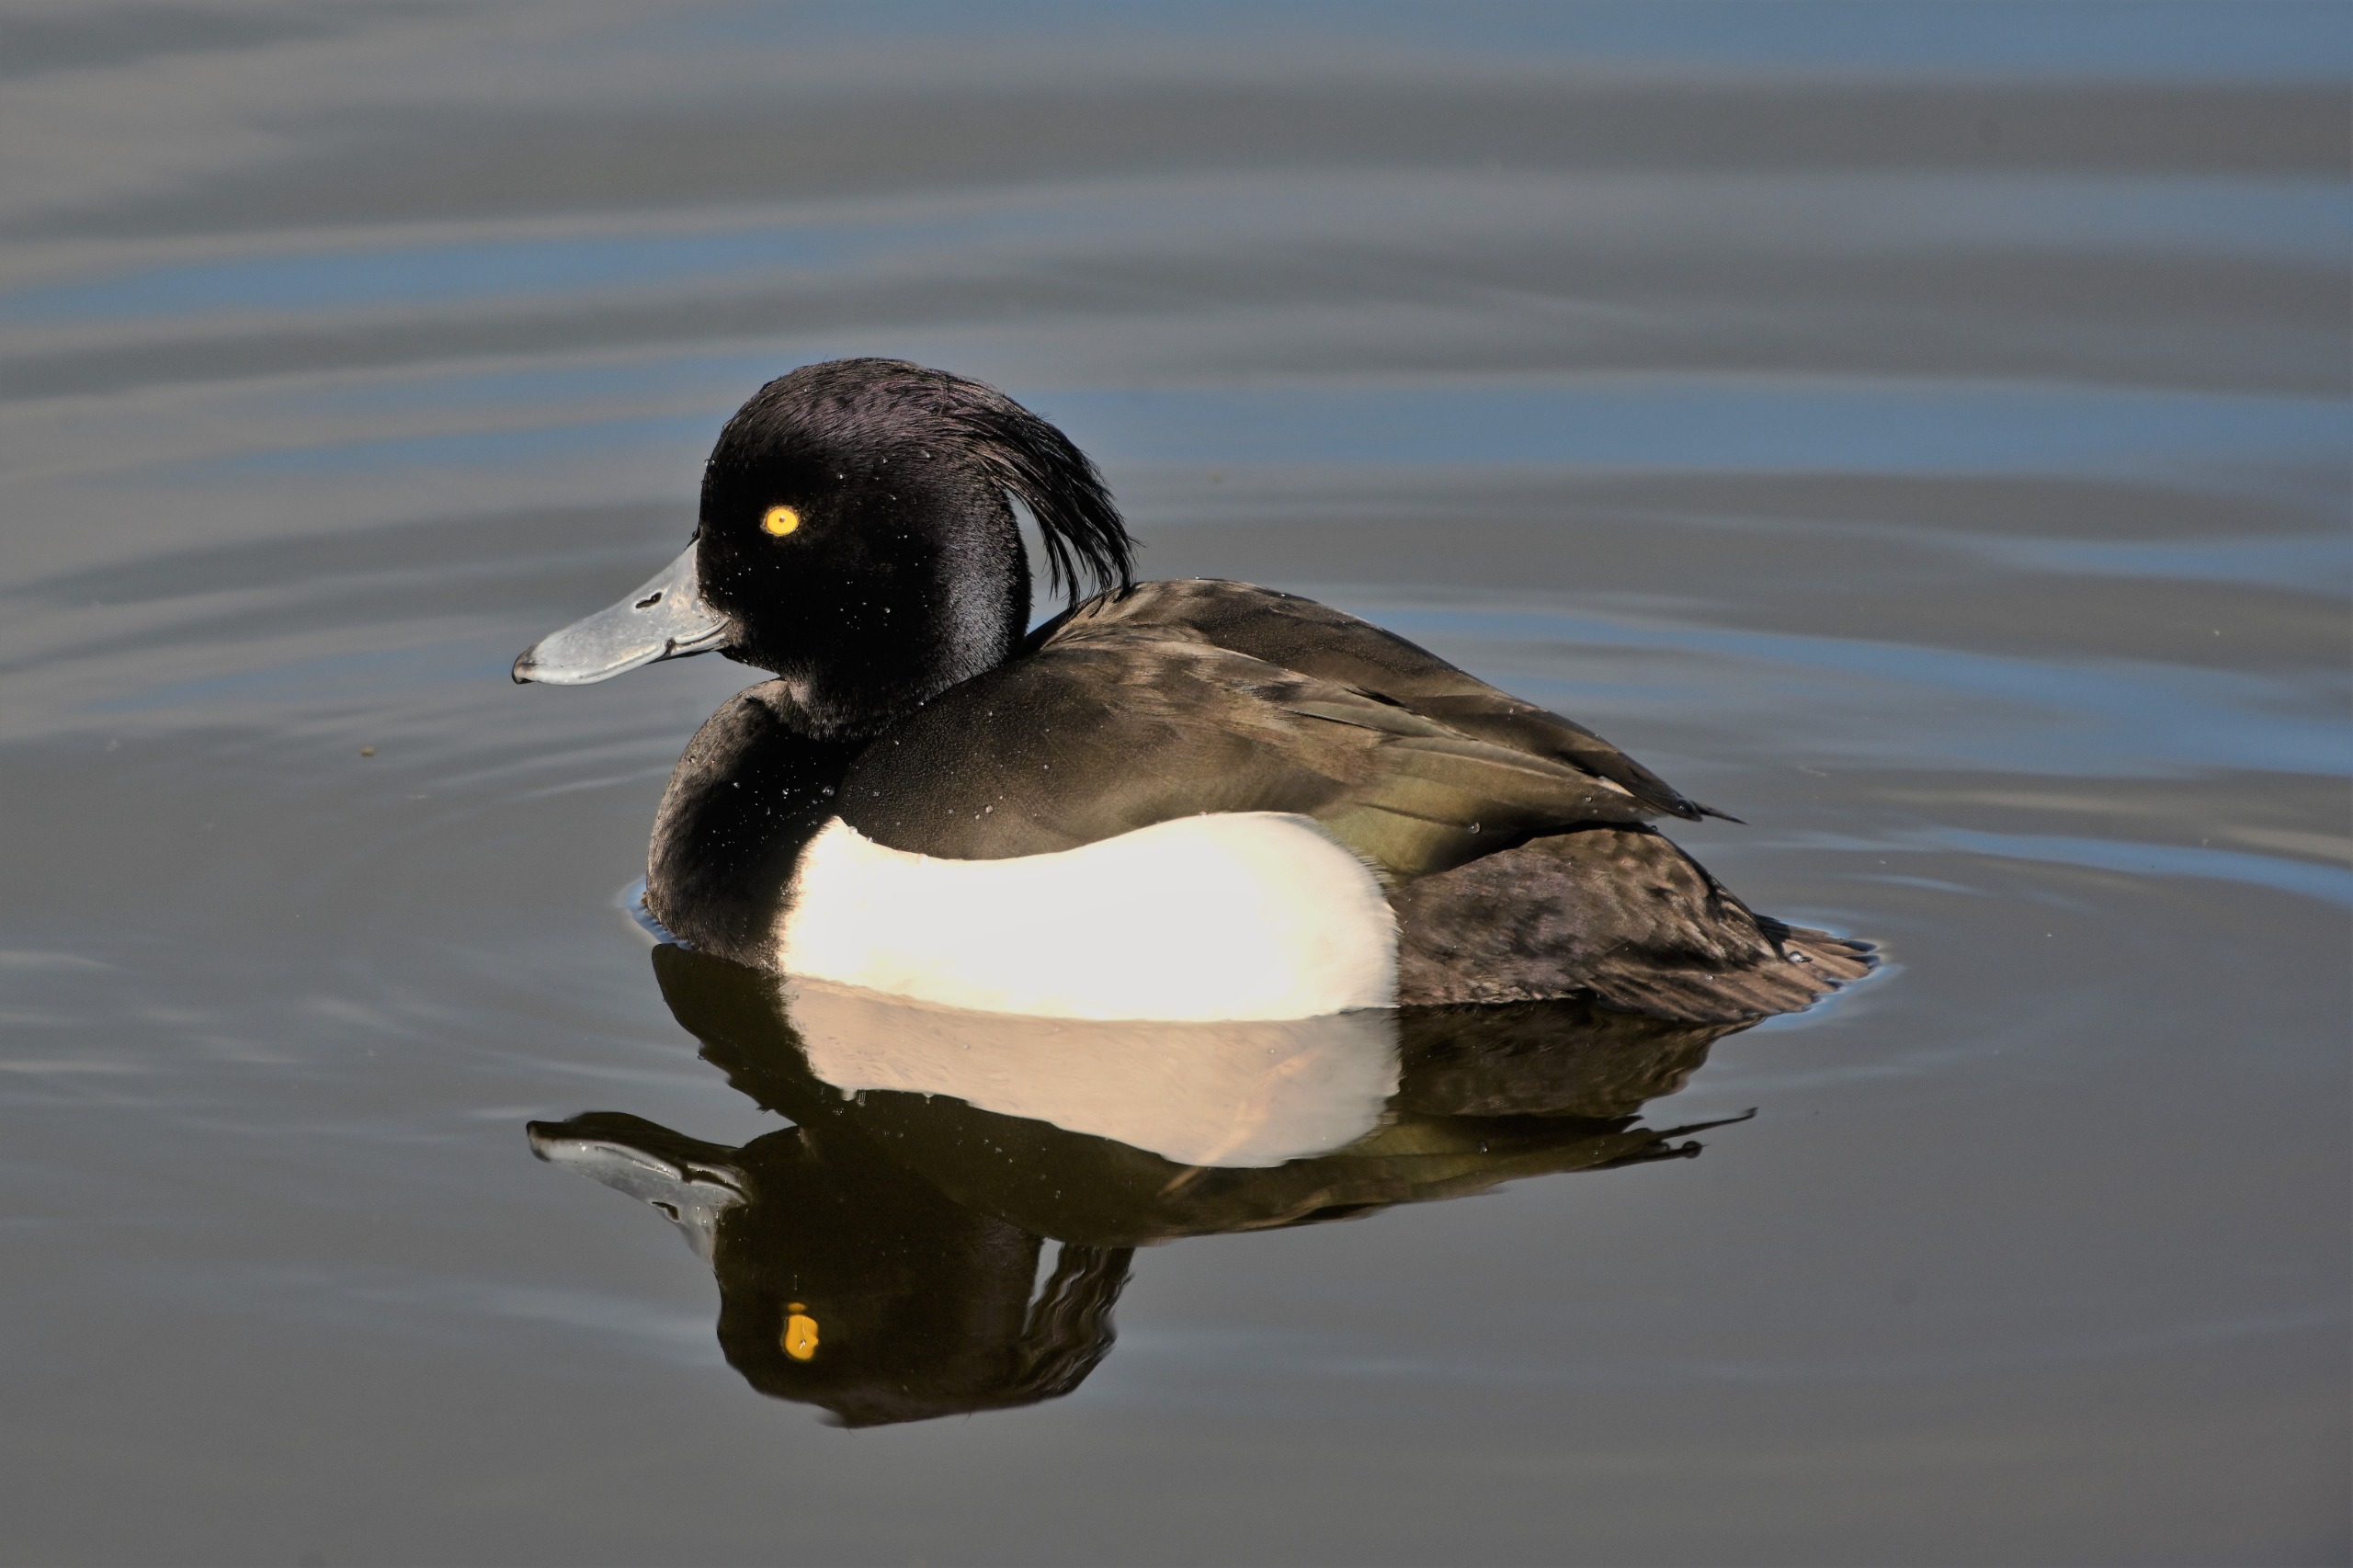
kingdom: Animalia
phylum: Chordata
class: Aves
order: Anseriformes
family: Anatidae
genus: Aythya
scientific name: Aythya fuligula
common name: Troldand
